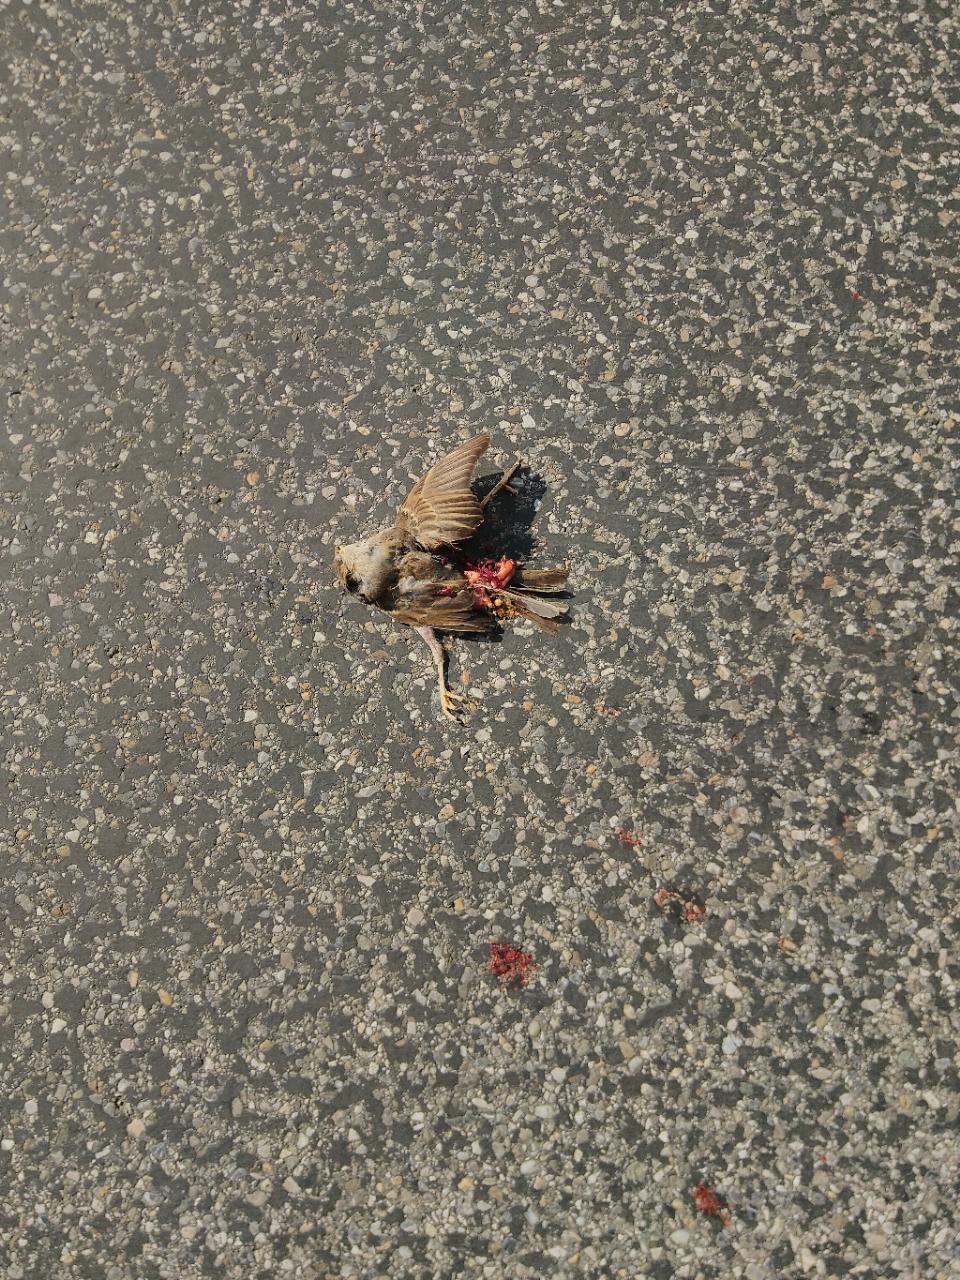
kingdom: Animalia
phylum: Chordata
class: Aves
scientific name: Aves
